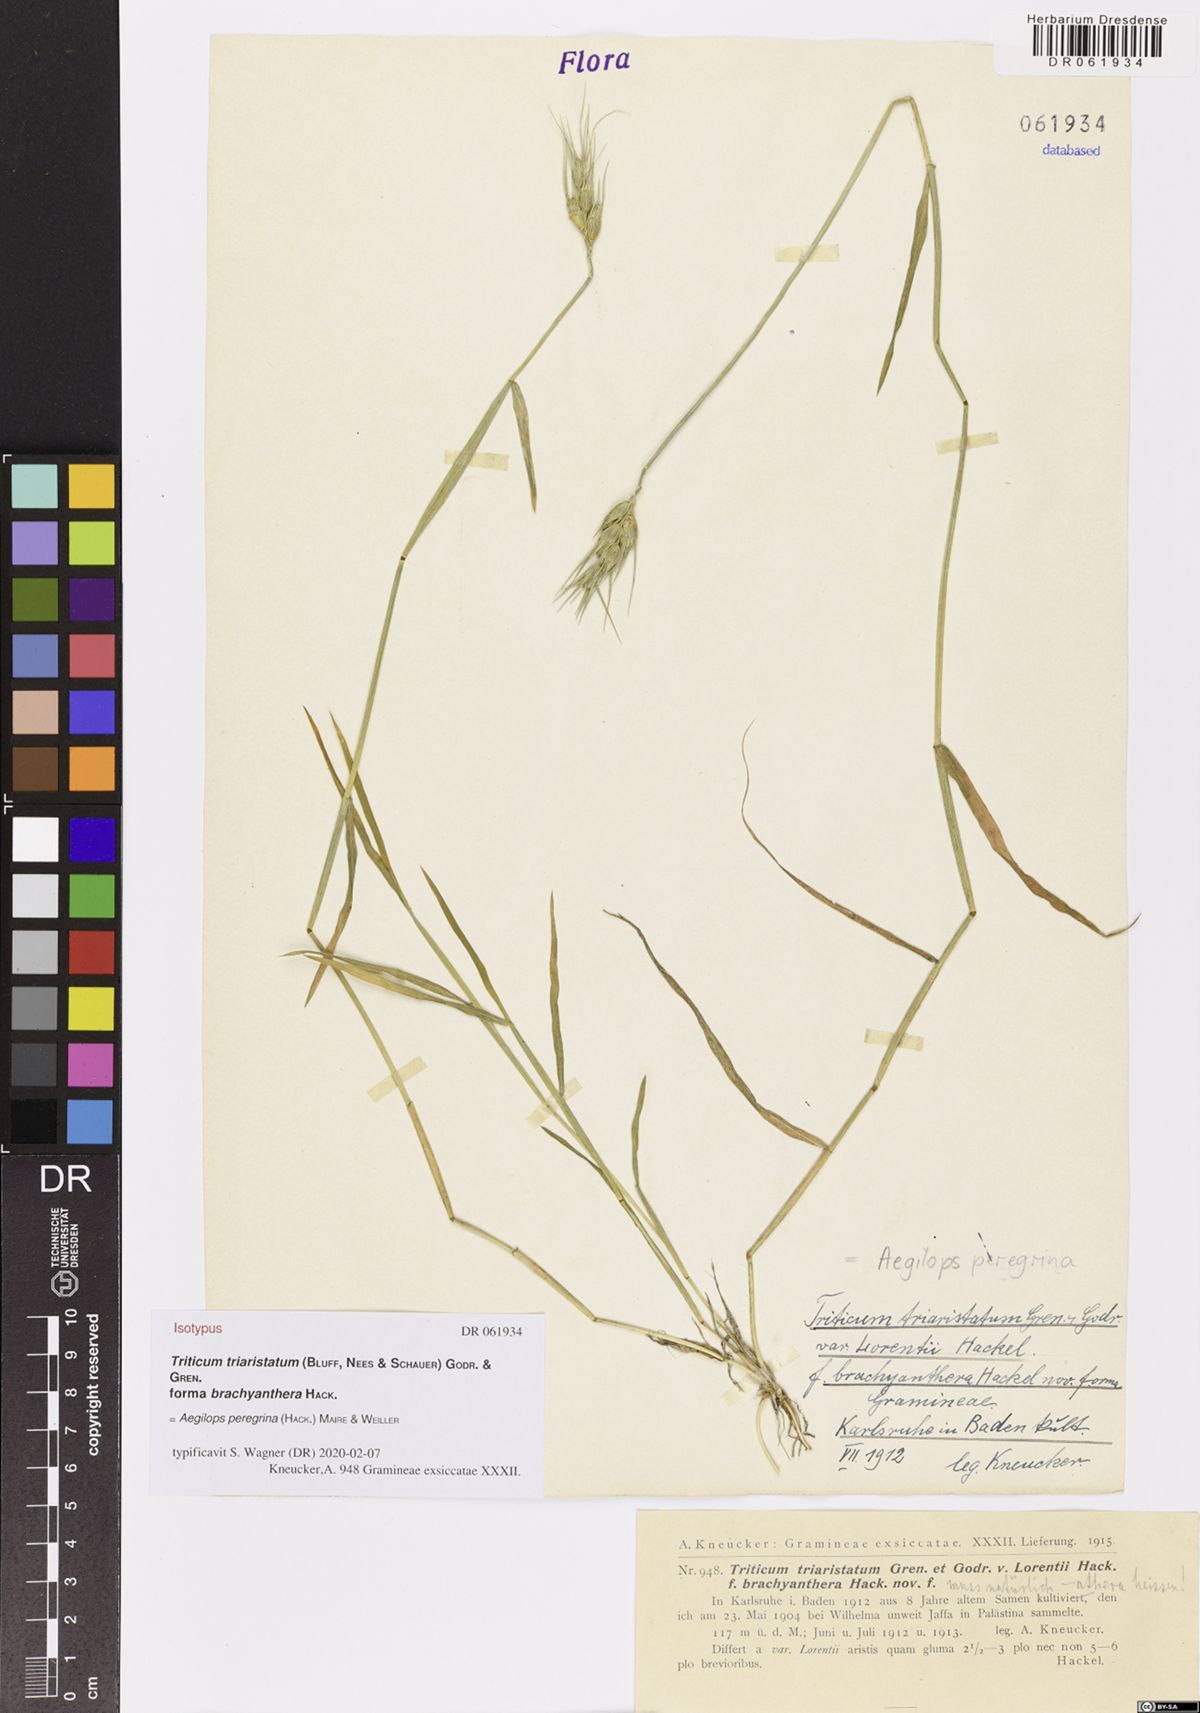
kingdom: Plantae
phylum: Tracheophyta
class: Liliopsida
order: Poales
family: Poaceae
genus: Aegilops
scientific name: Aegilops peregrina
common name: Goatgrass
